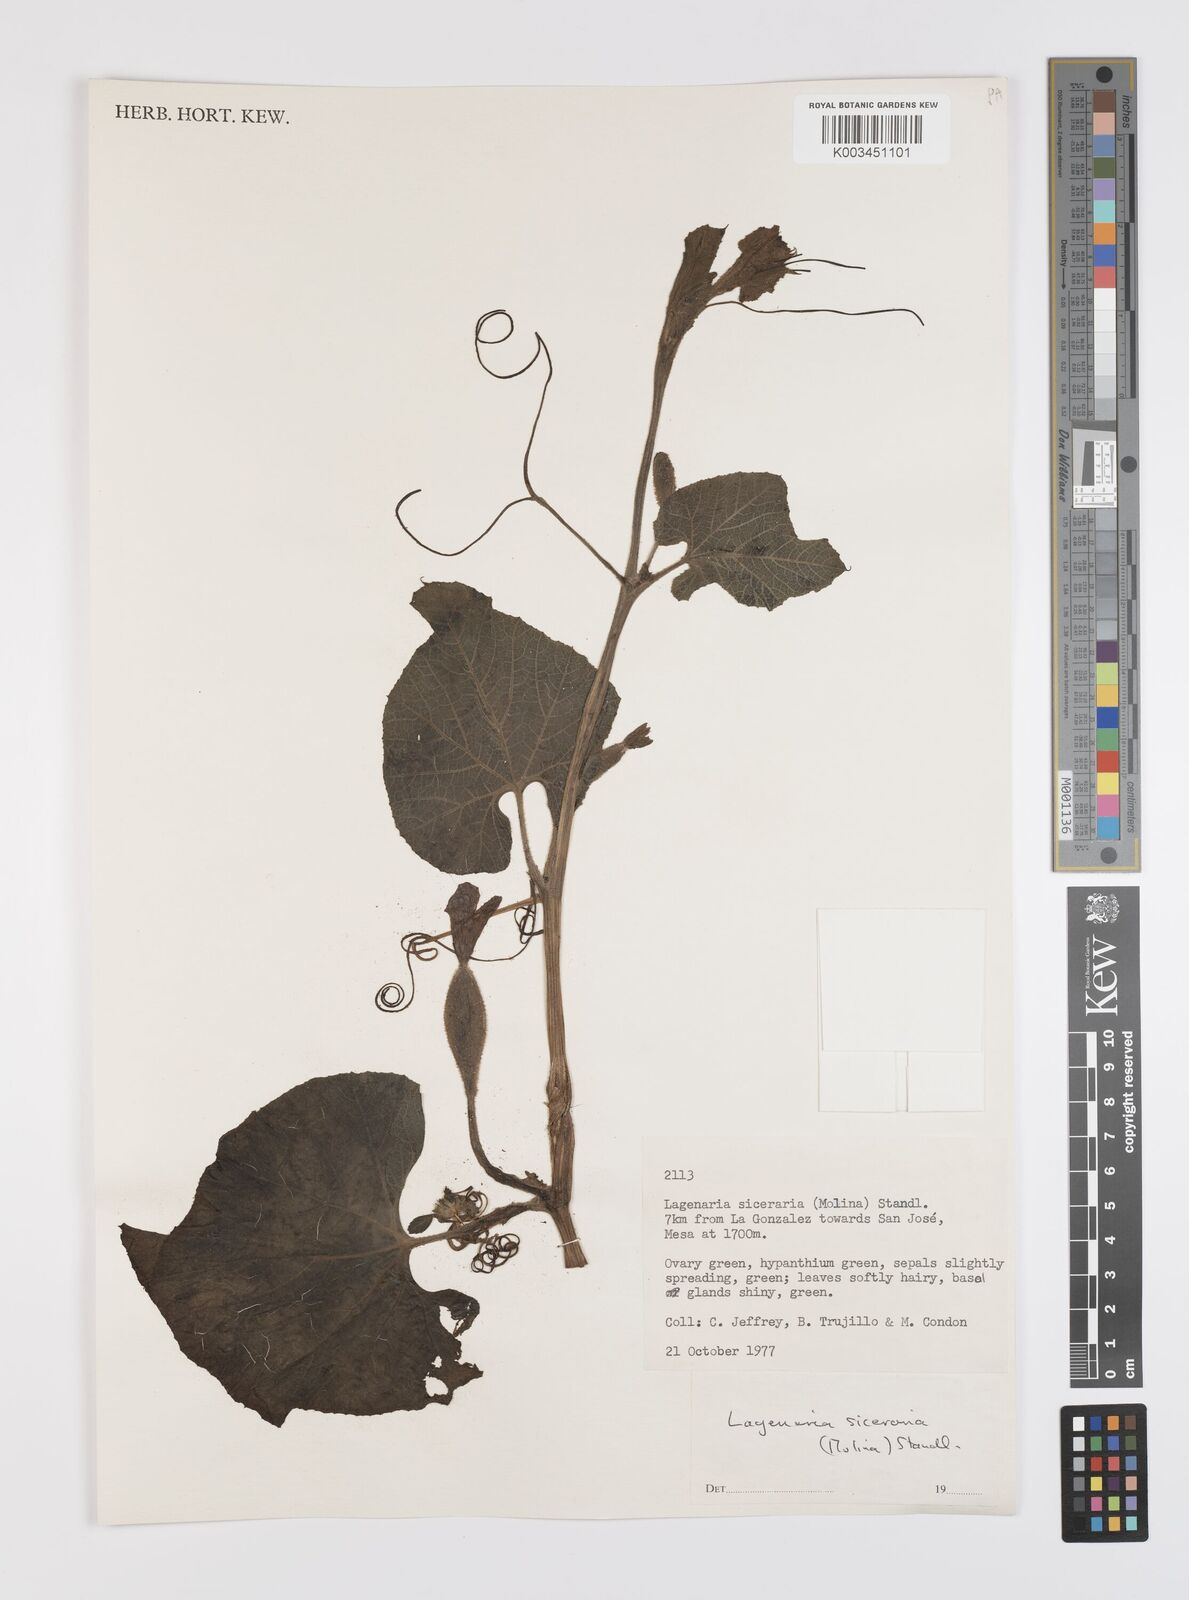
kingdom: Plantae
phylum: Tracheophyta
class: Magnoliopsida
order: Cucurbitales
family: Cucurbitaceae
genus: Lagenaria
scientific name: Lagenaria siceraria
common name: Bottle gourd
